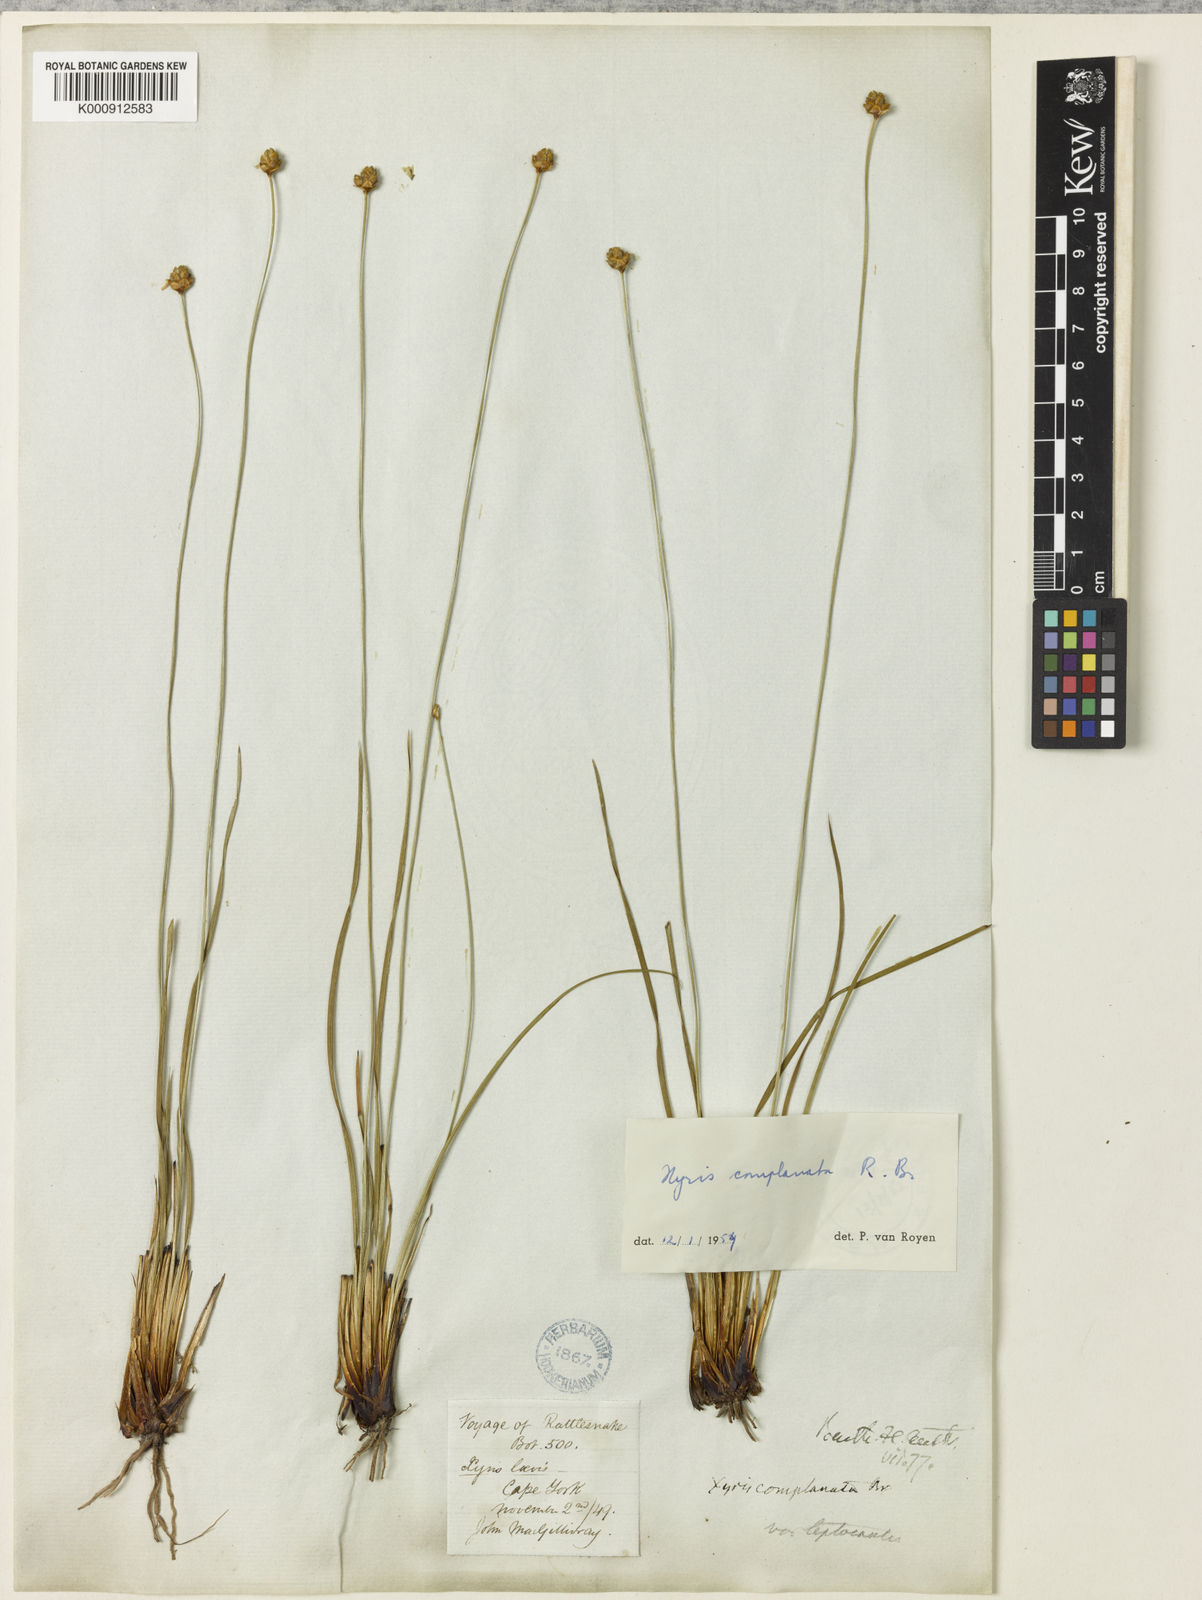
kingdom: Plantae
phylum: Tracheophyta
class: Liliopsida
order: Poales
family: Xyridaceae
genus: Xyris
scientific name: Xyris
